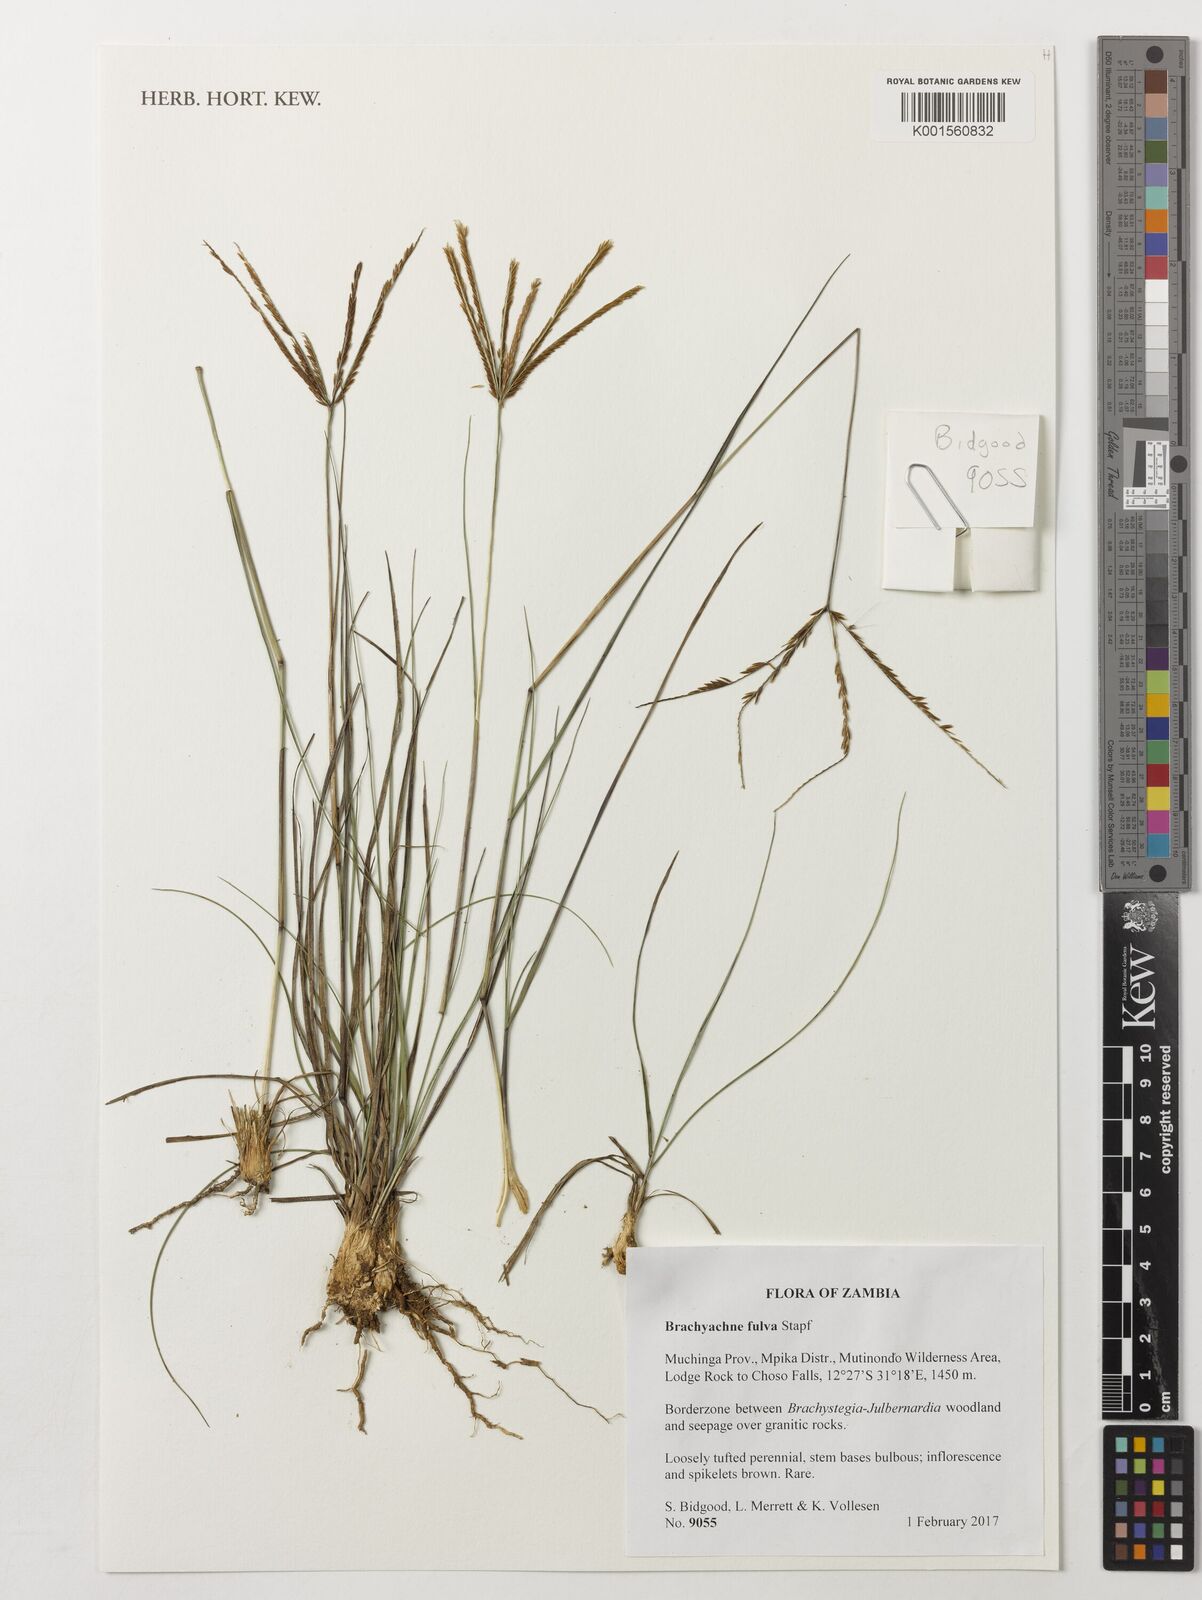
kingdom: Plantae
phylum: Tracheophyta
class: Liliopsida
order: Poales
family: Poaceae
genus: Micrachne
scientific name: Micrachne fulva
